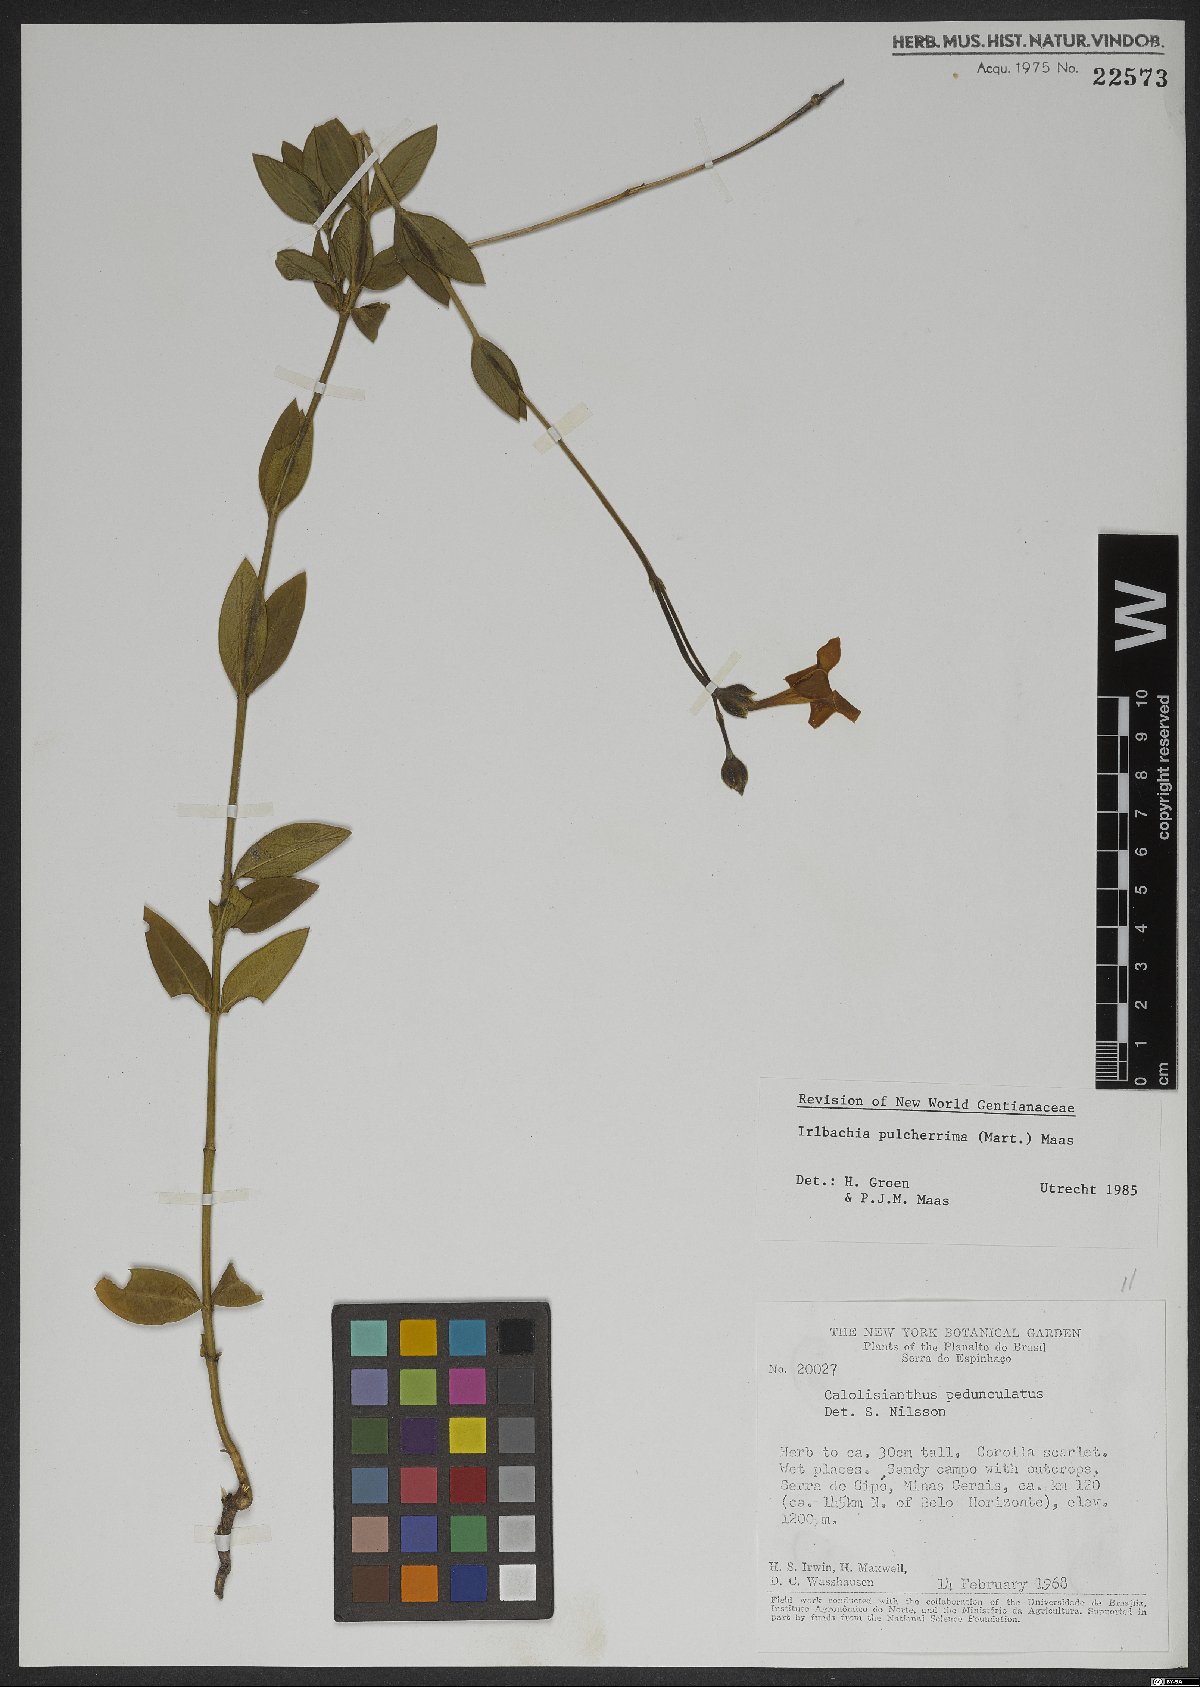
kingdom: Plantae
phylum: Tracheophyta
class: Magnoliopsida
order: Gentianales
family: Gentianaceae
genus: Calolisianthus
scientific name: Calolisianthus pulcherrimus
